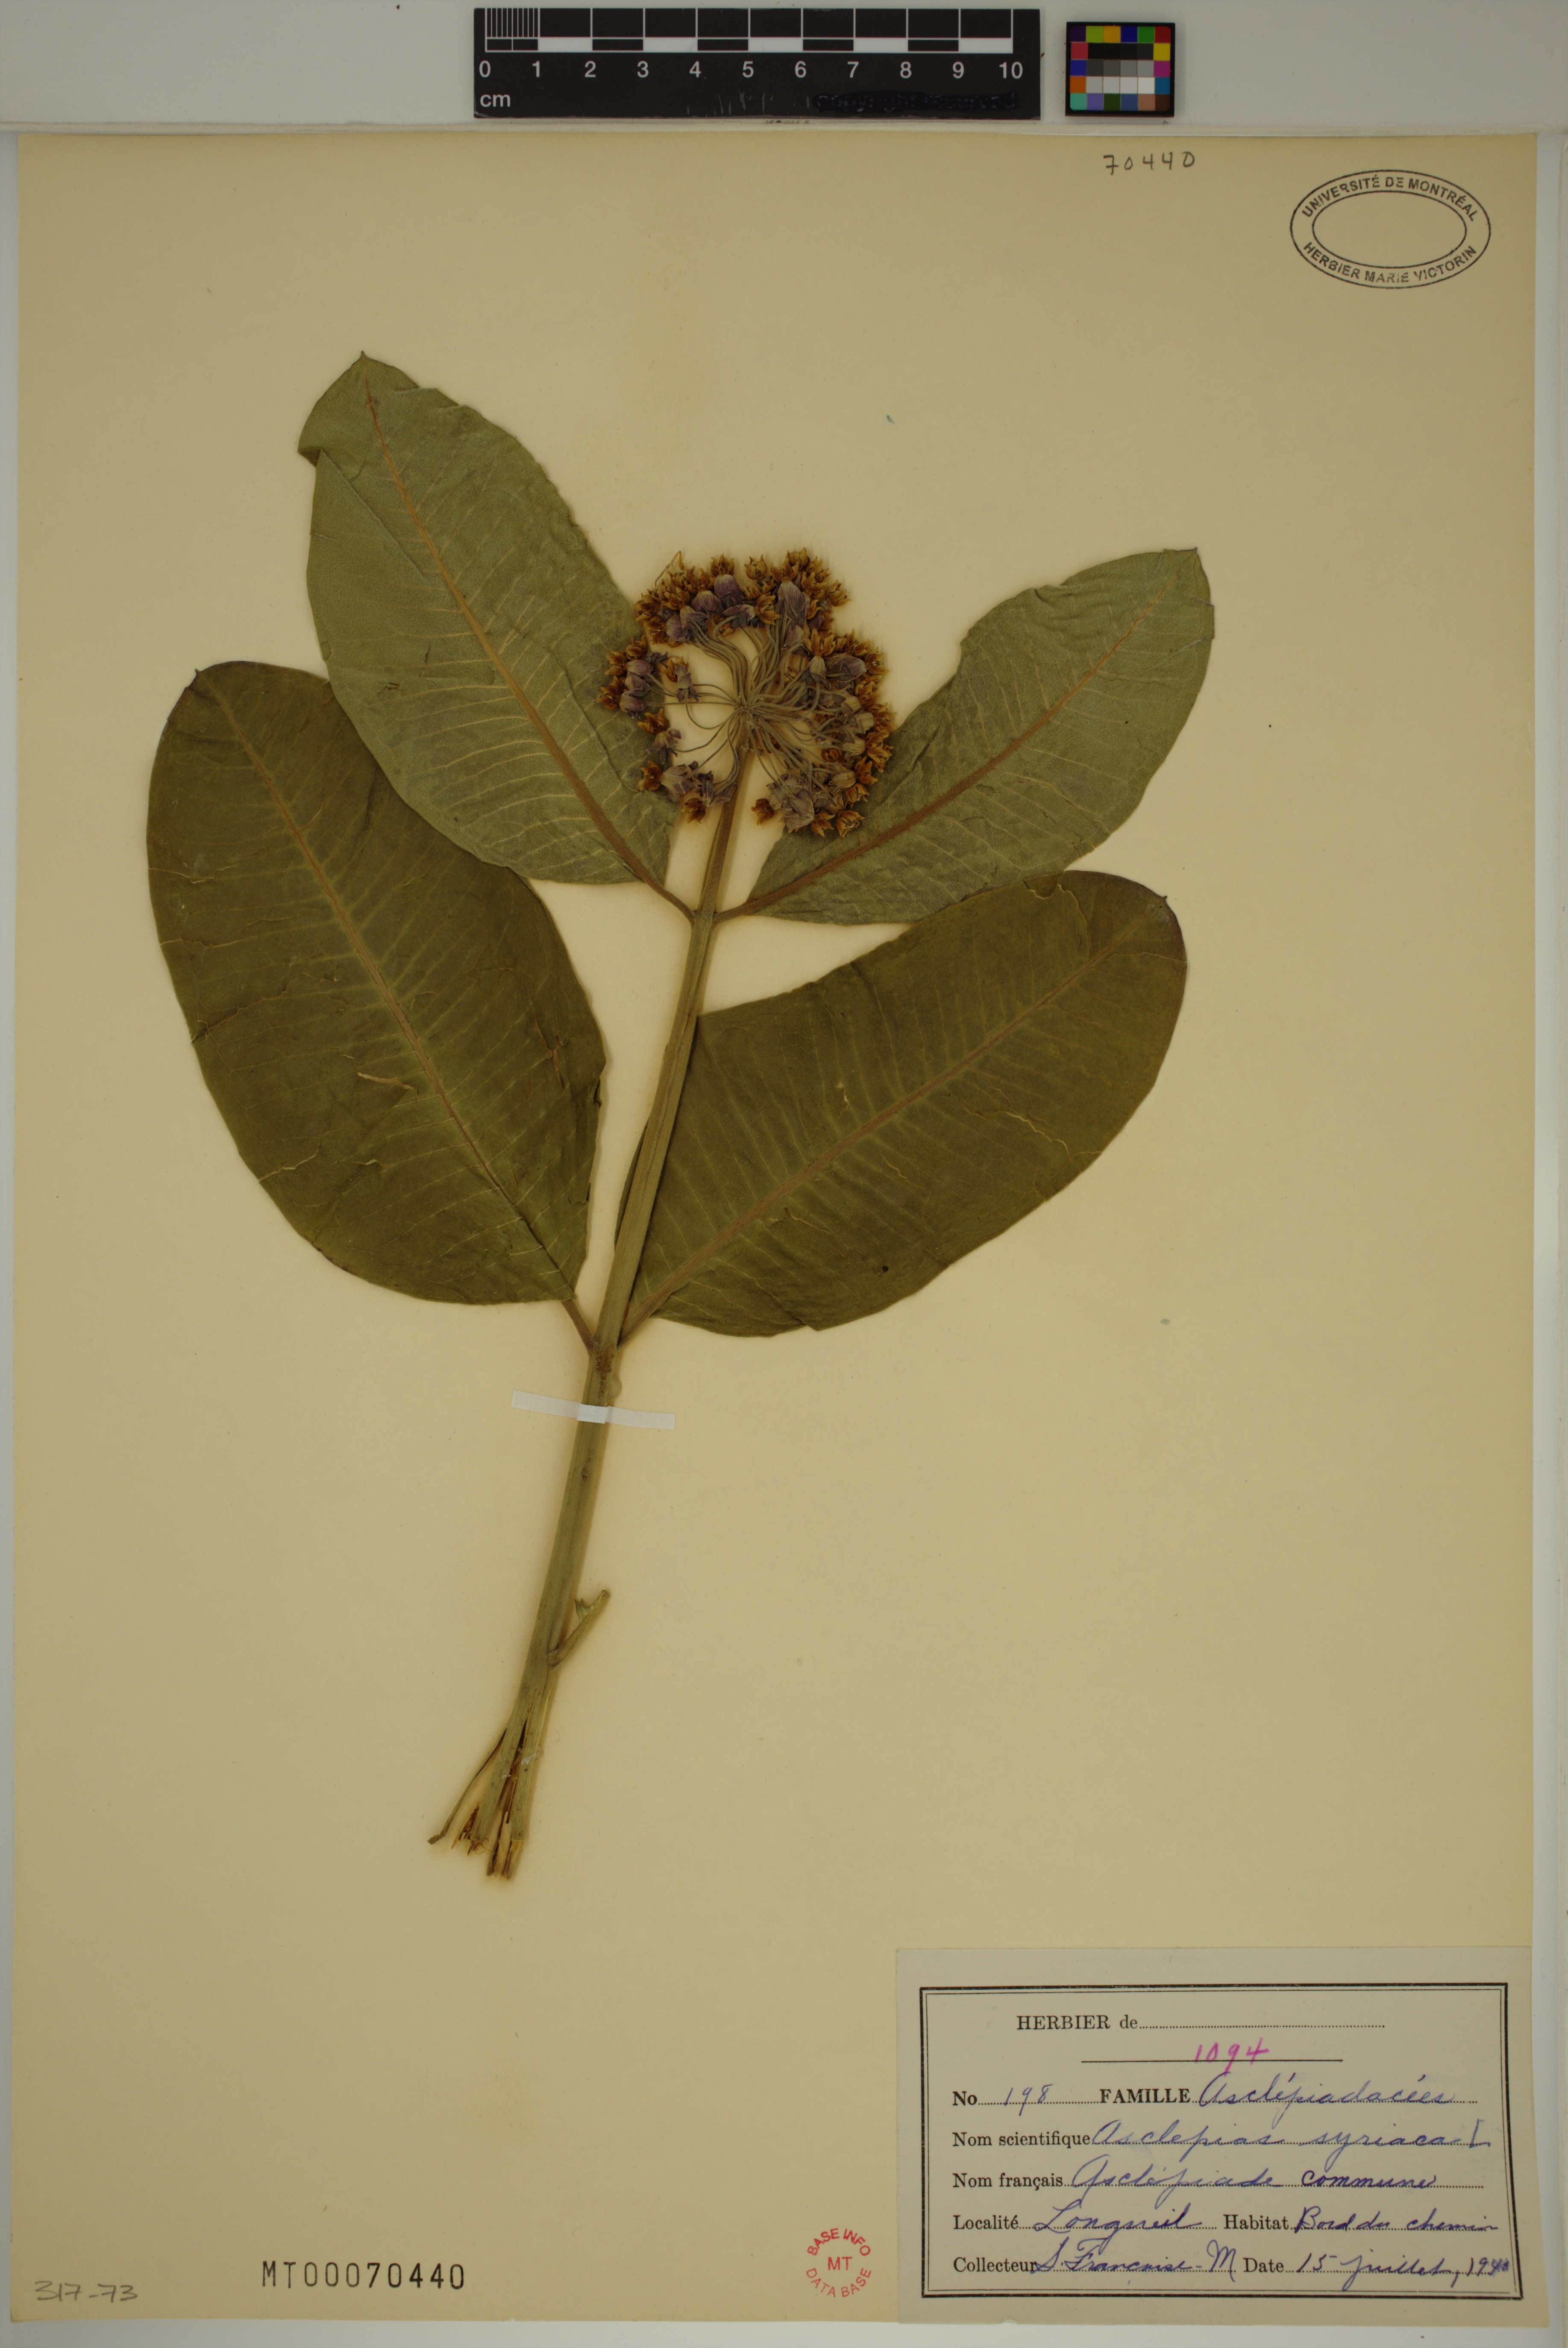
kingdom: Plantae
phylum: Tracheophyta
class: Magnoliopsida
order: Gentianales
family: Apocynaceae
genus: Asclepias
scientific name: Asclepias syriaca
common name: Common milkweed
